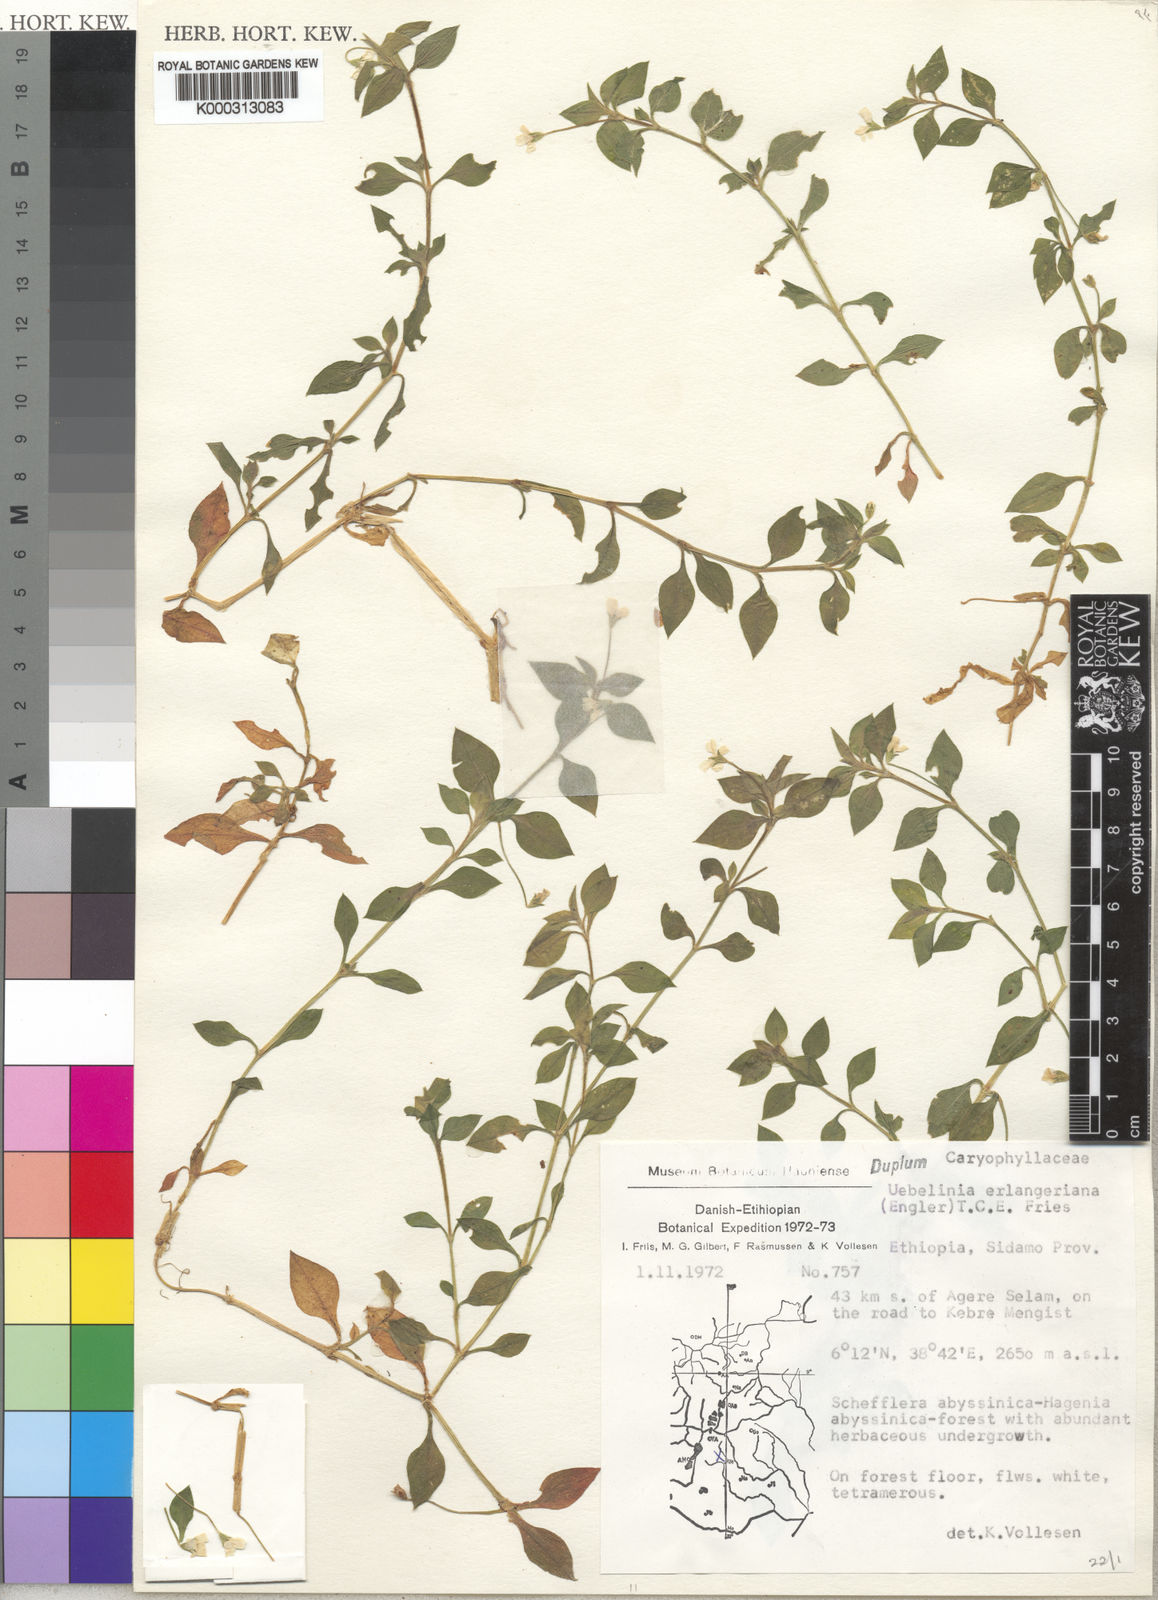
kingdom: Plantae
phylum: Tracheophyta
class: Magnoliopsida
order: Caryophyllales
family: Caryophyllaceae
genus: Silene
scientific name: Silene kiwuensis
